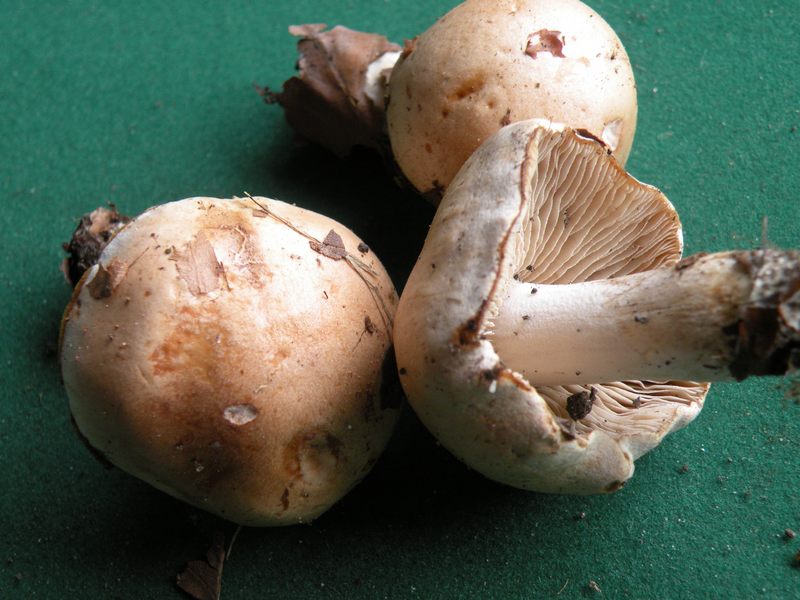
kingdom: Fungi
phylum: Basidiomycota
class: Agaricomycetes
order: Agaricales
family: Hymenogastraceae
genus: Hebeloma
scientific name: Hebeloma laterinum
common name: kakao-tåreblad
